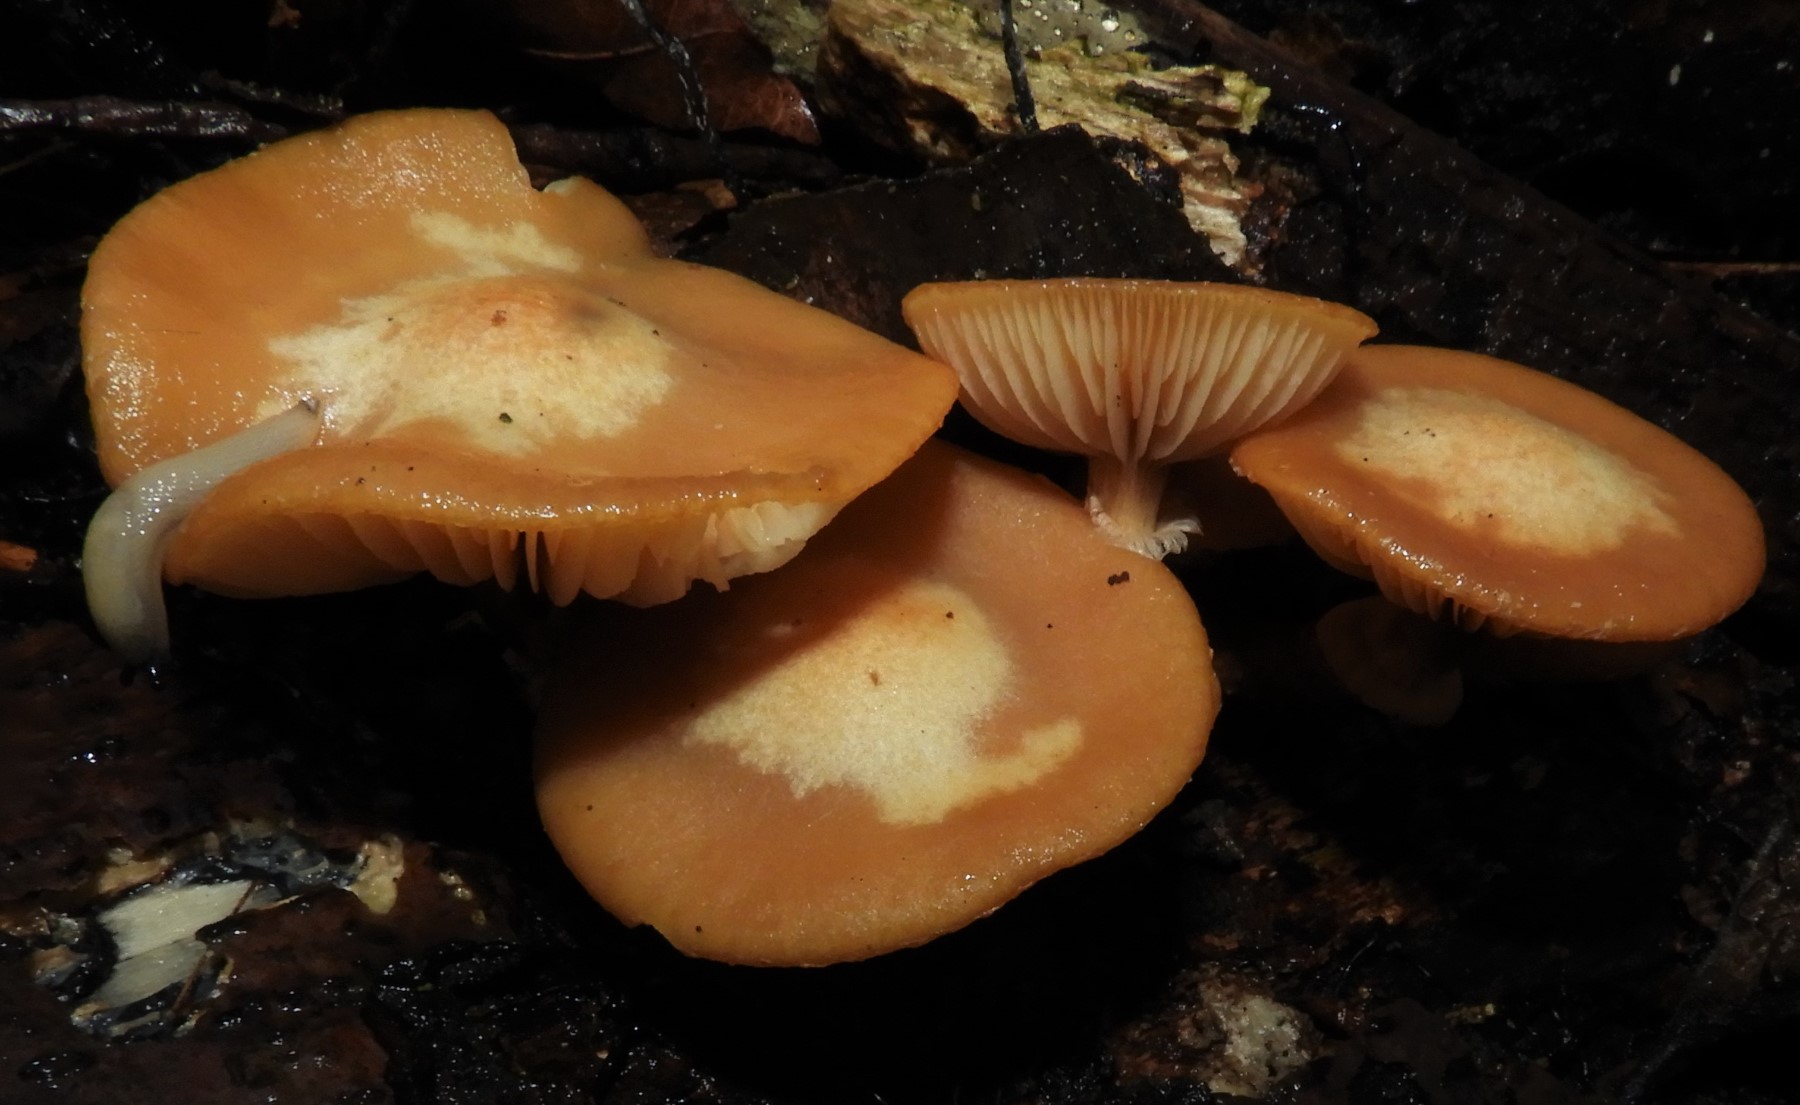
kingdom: Fungi
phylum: Basidiomycota
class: Agaricomycetes
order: Agaricales
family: Strophariaceae
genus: Kuehneromyces
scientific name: Kuehneromyces mutabilis
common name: foranderlig skælhat
